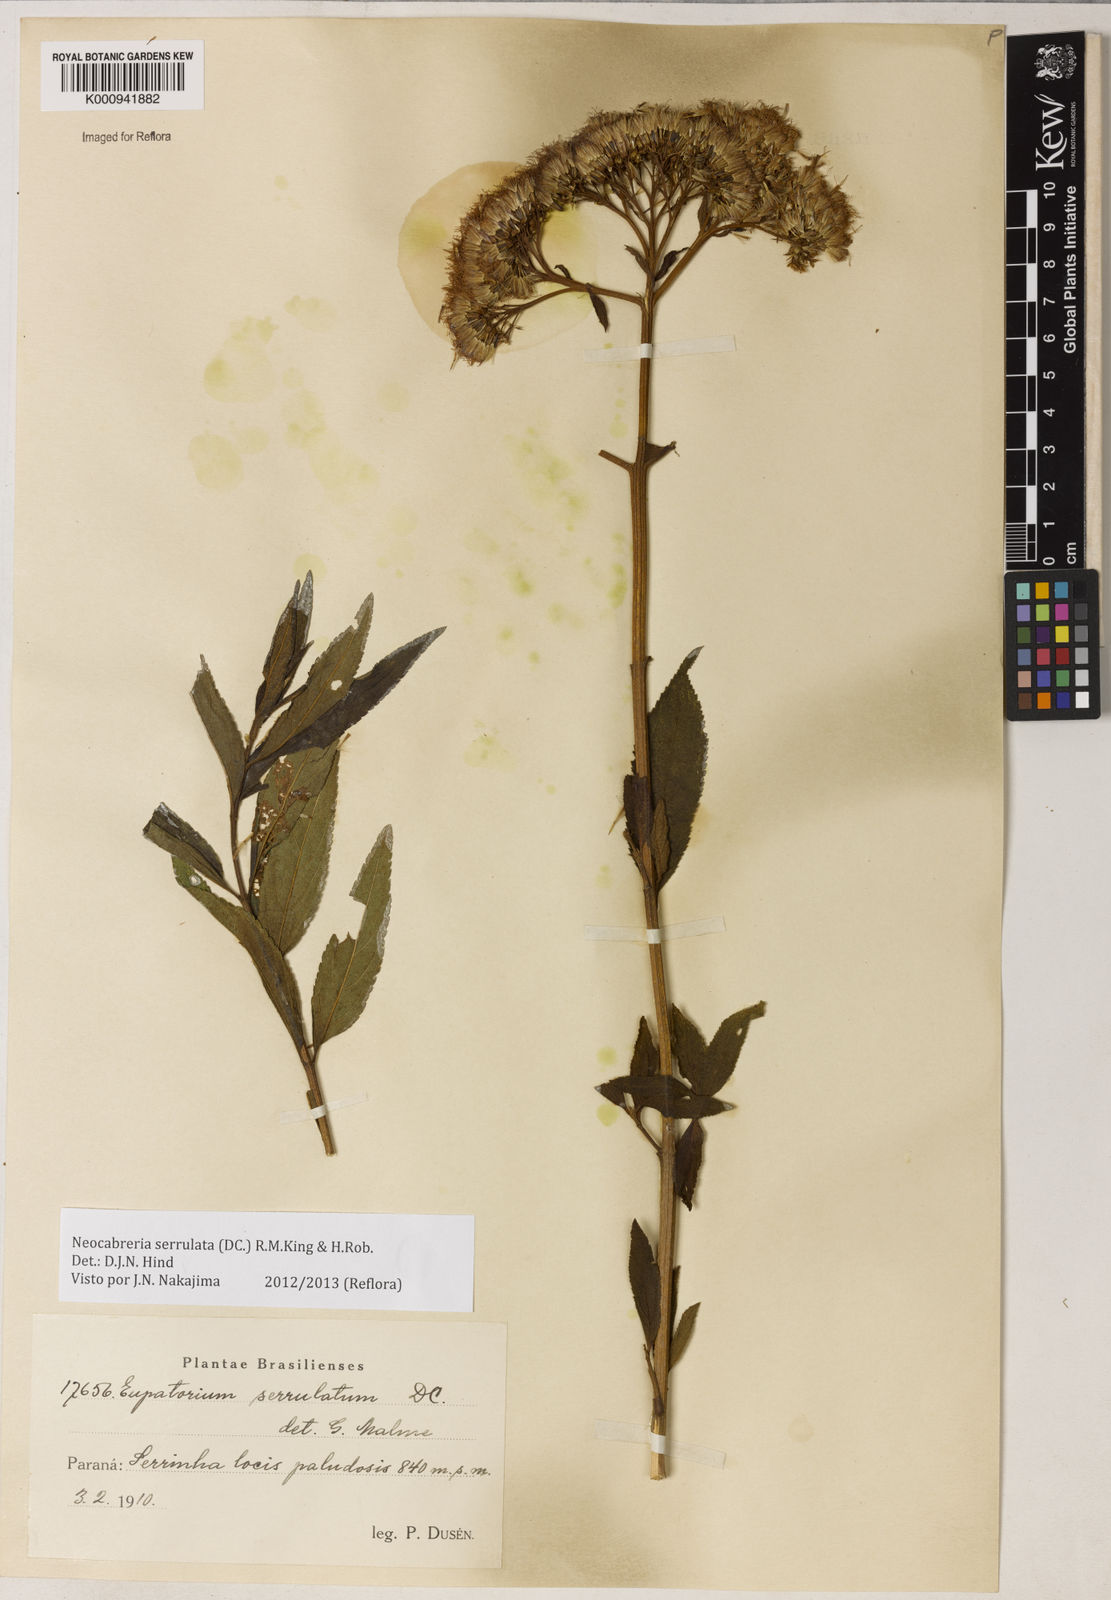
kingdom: Plantae
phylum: Tracheophyta
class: Magnoliopsida
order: Asterales
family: Asteraceae
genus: Neocabreria
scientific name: Neocabreria serrulata
